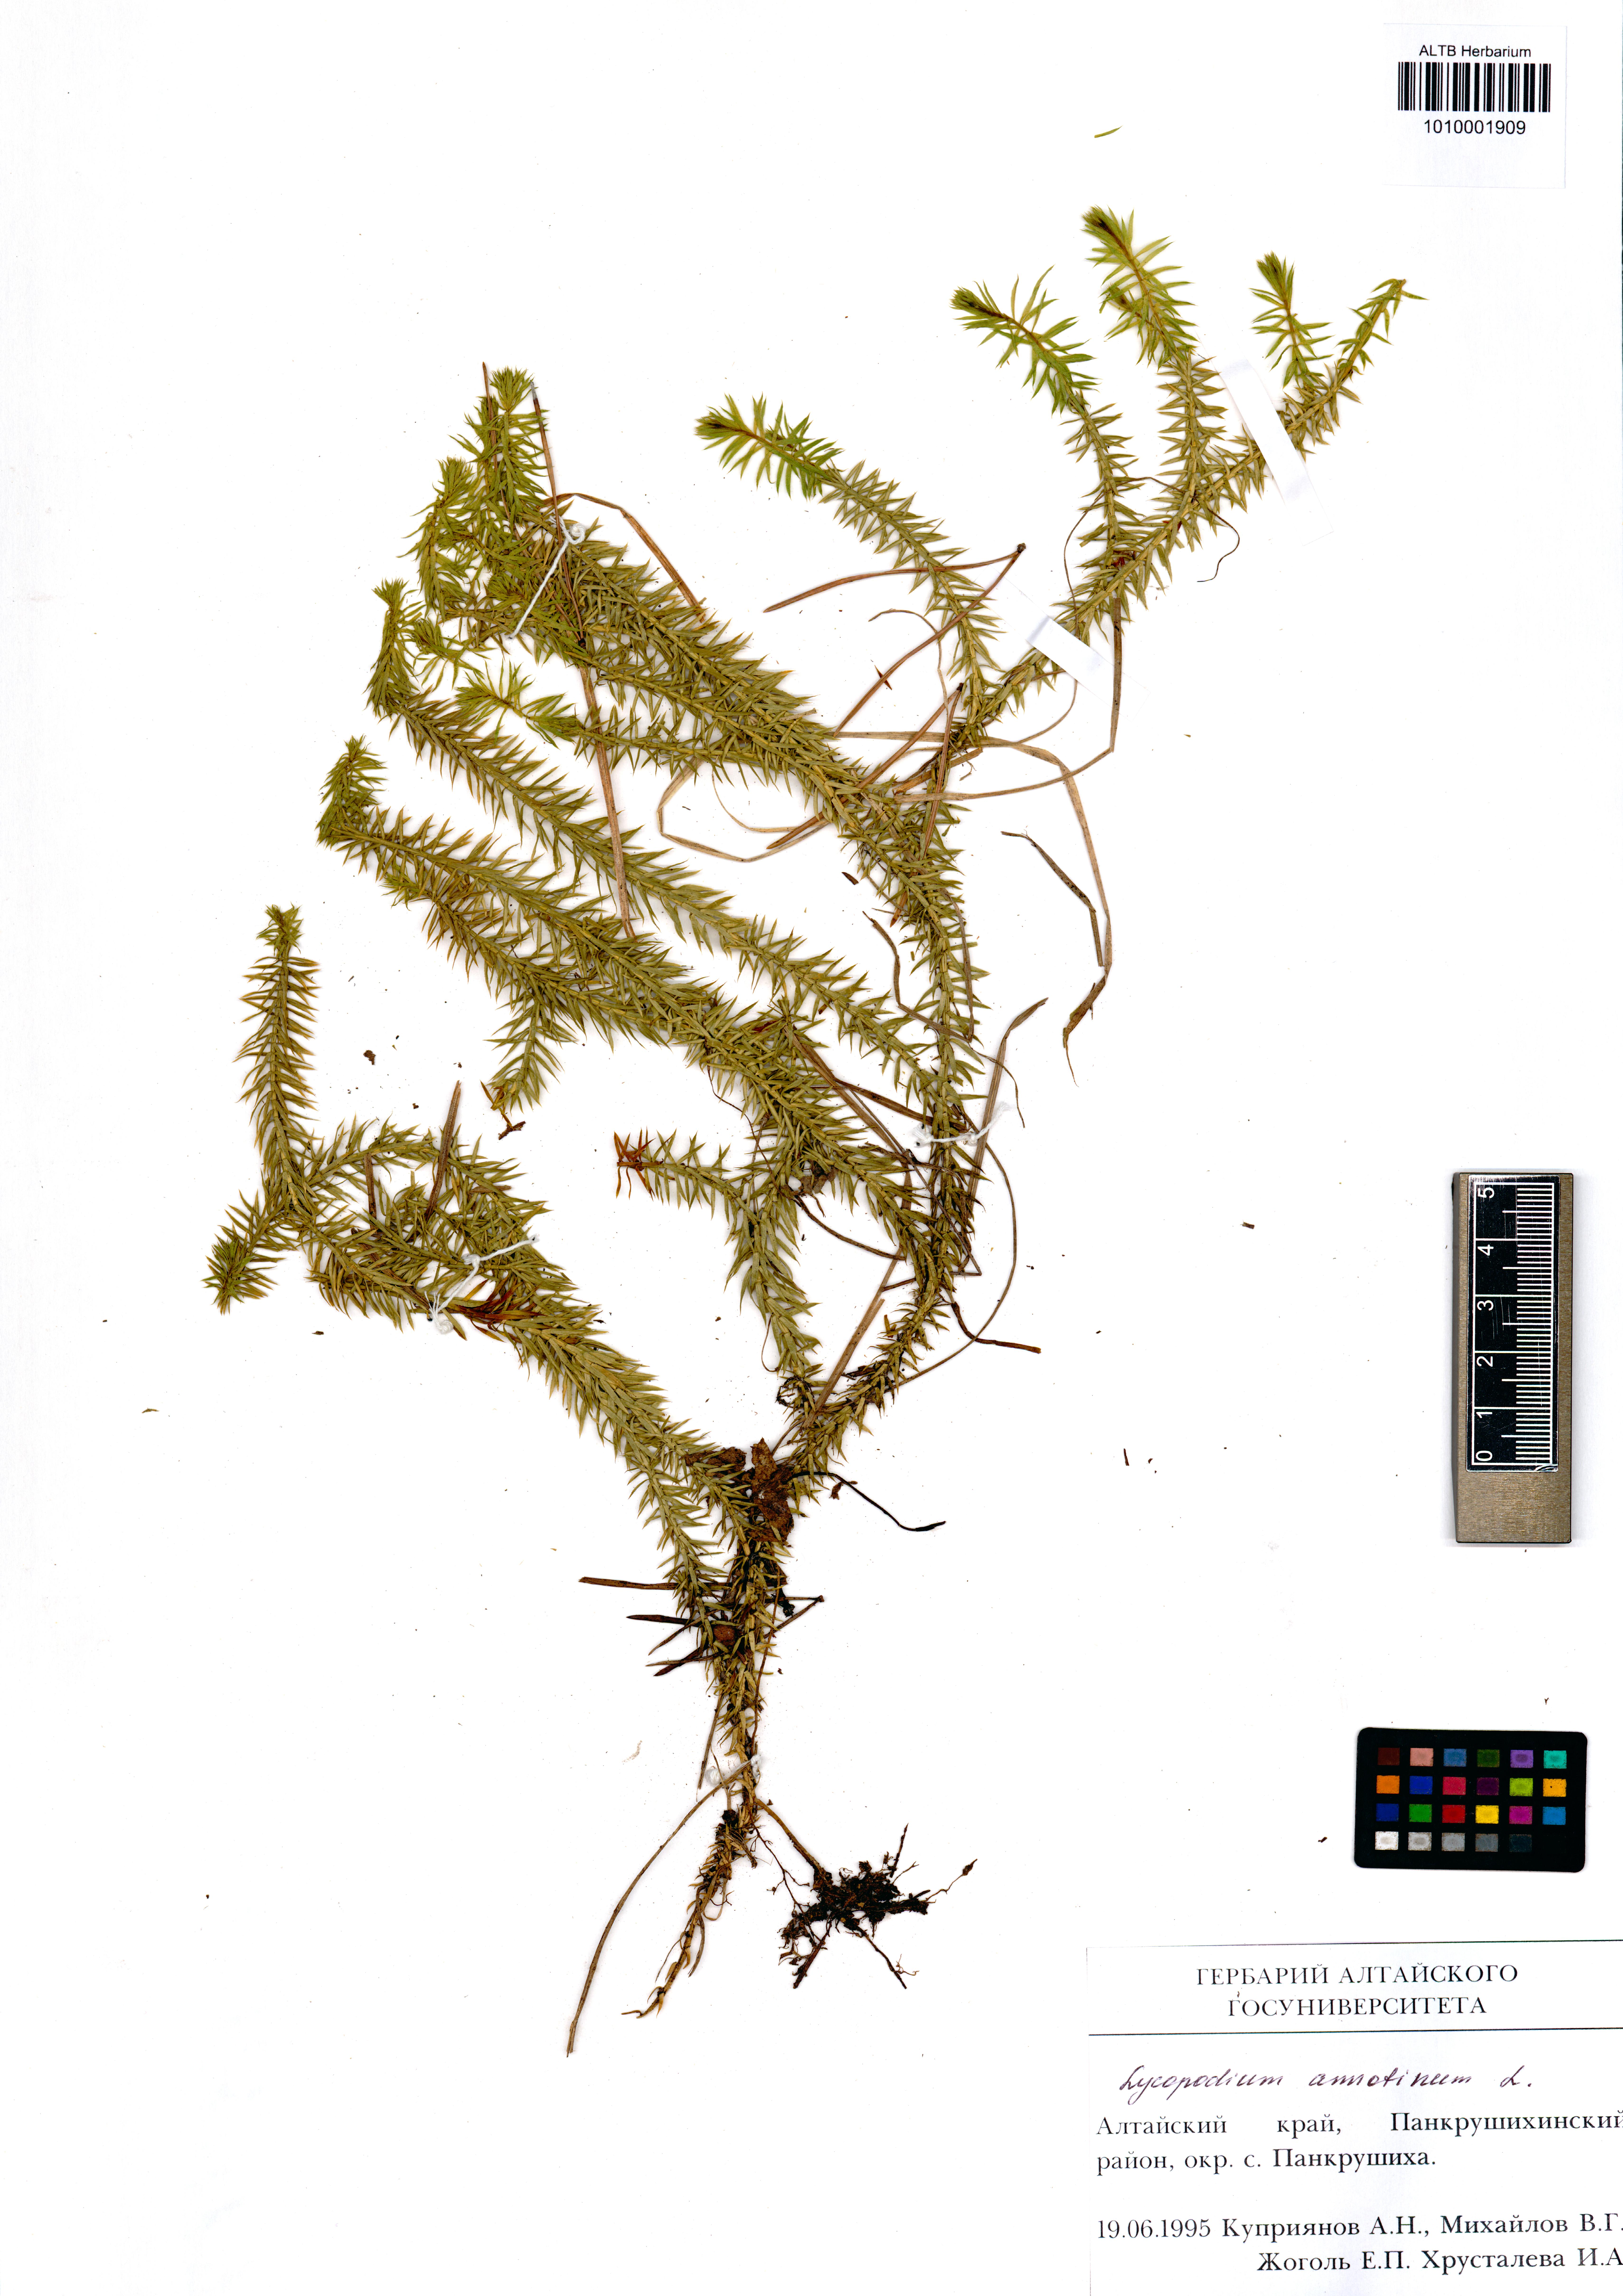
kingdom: Plantae
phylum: Tracheophyta
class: Lycopodiopsida
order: Lycopodiales
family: Lycopodiaceae
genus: Spinulum
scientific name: Spinulum annotinum
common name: Interrupted club-moss
